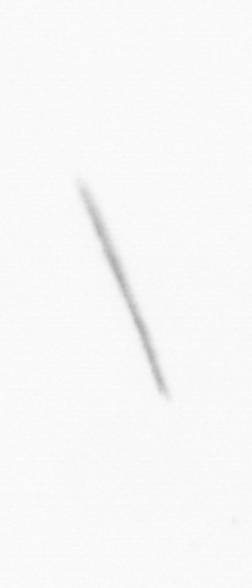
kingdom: Chromista
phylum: Ochrophyta
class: Bacillariophyceae
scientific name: Bacillariophyceae
